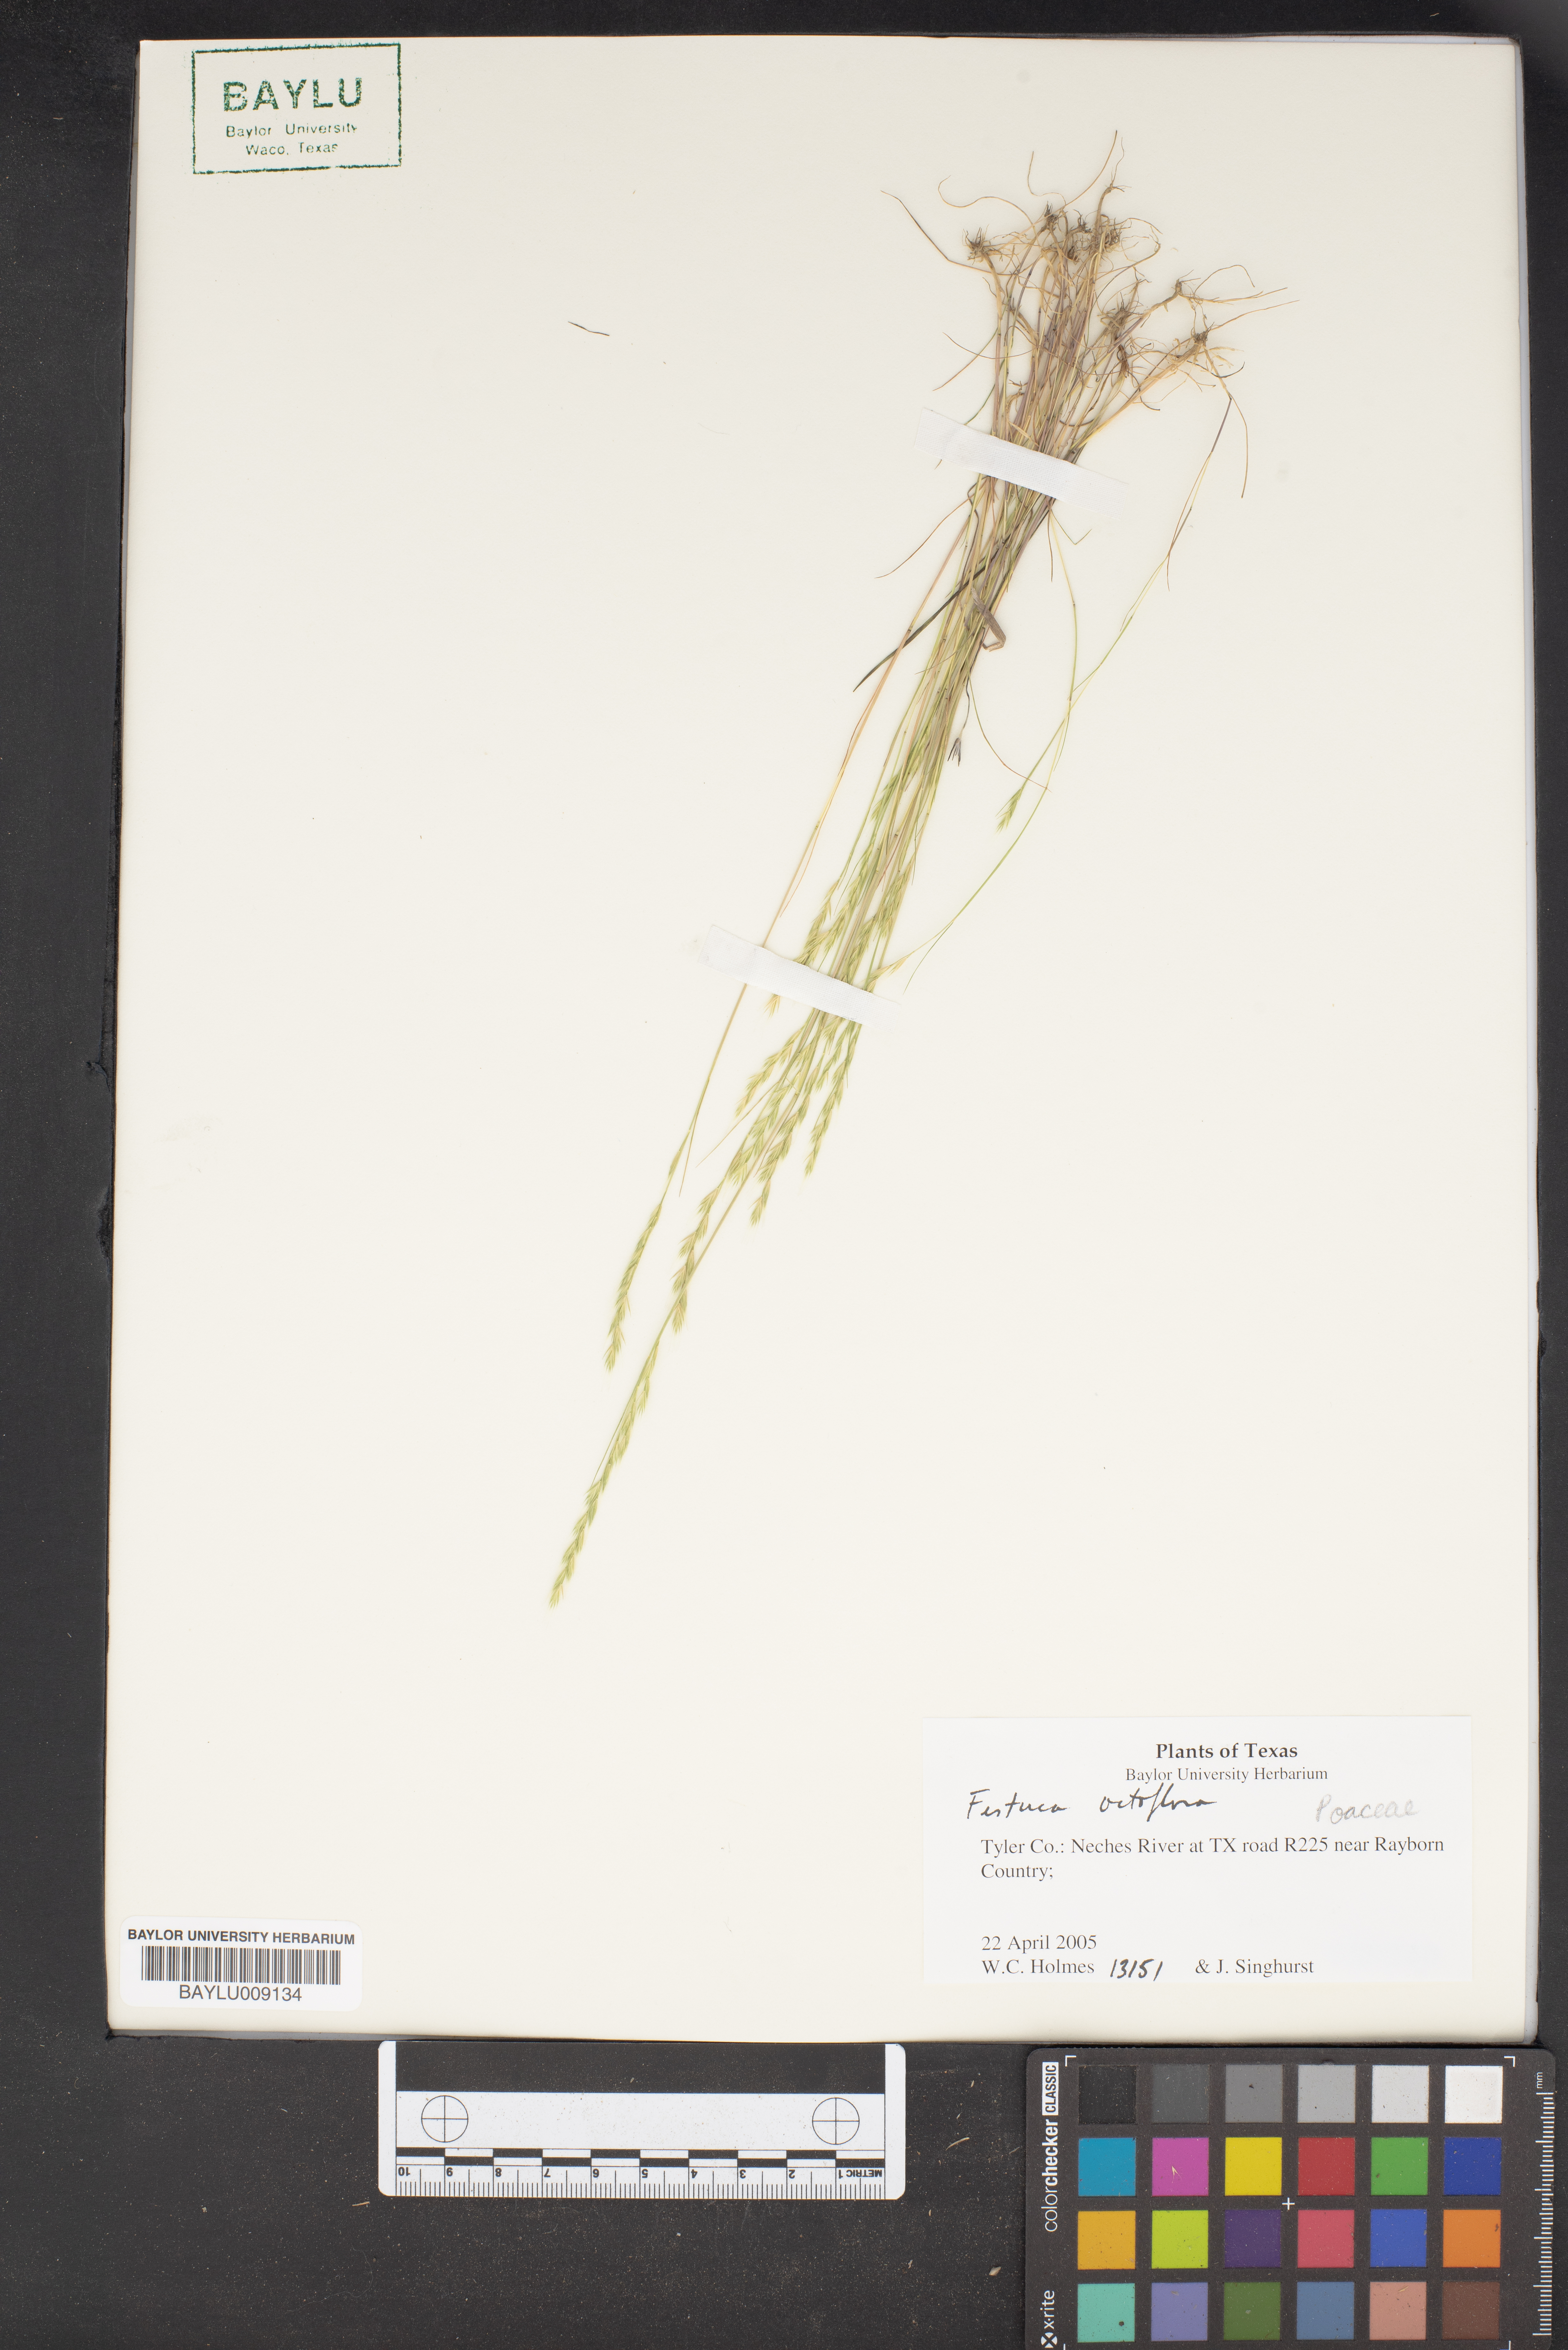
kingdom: Plantae
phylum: Tracheophyta
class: Liliopsida
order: Poales
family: Poaceae
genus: Festuca
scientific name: Festuca octoflora
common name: Sixweeks grass
